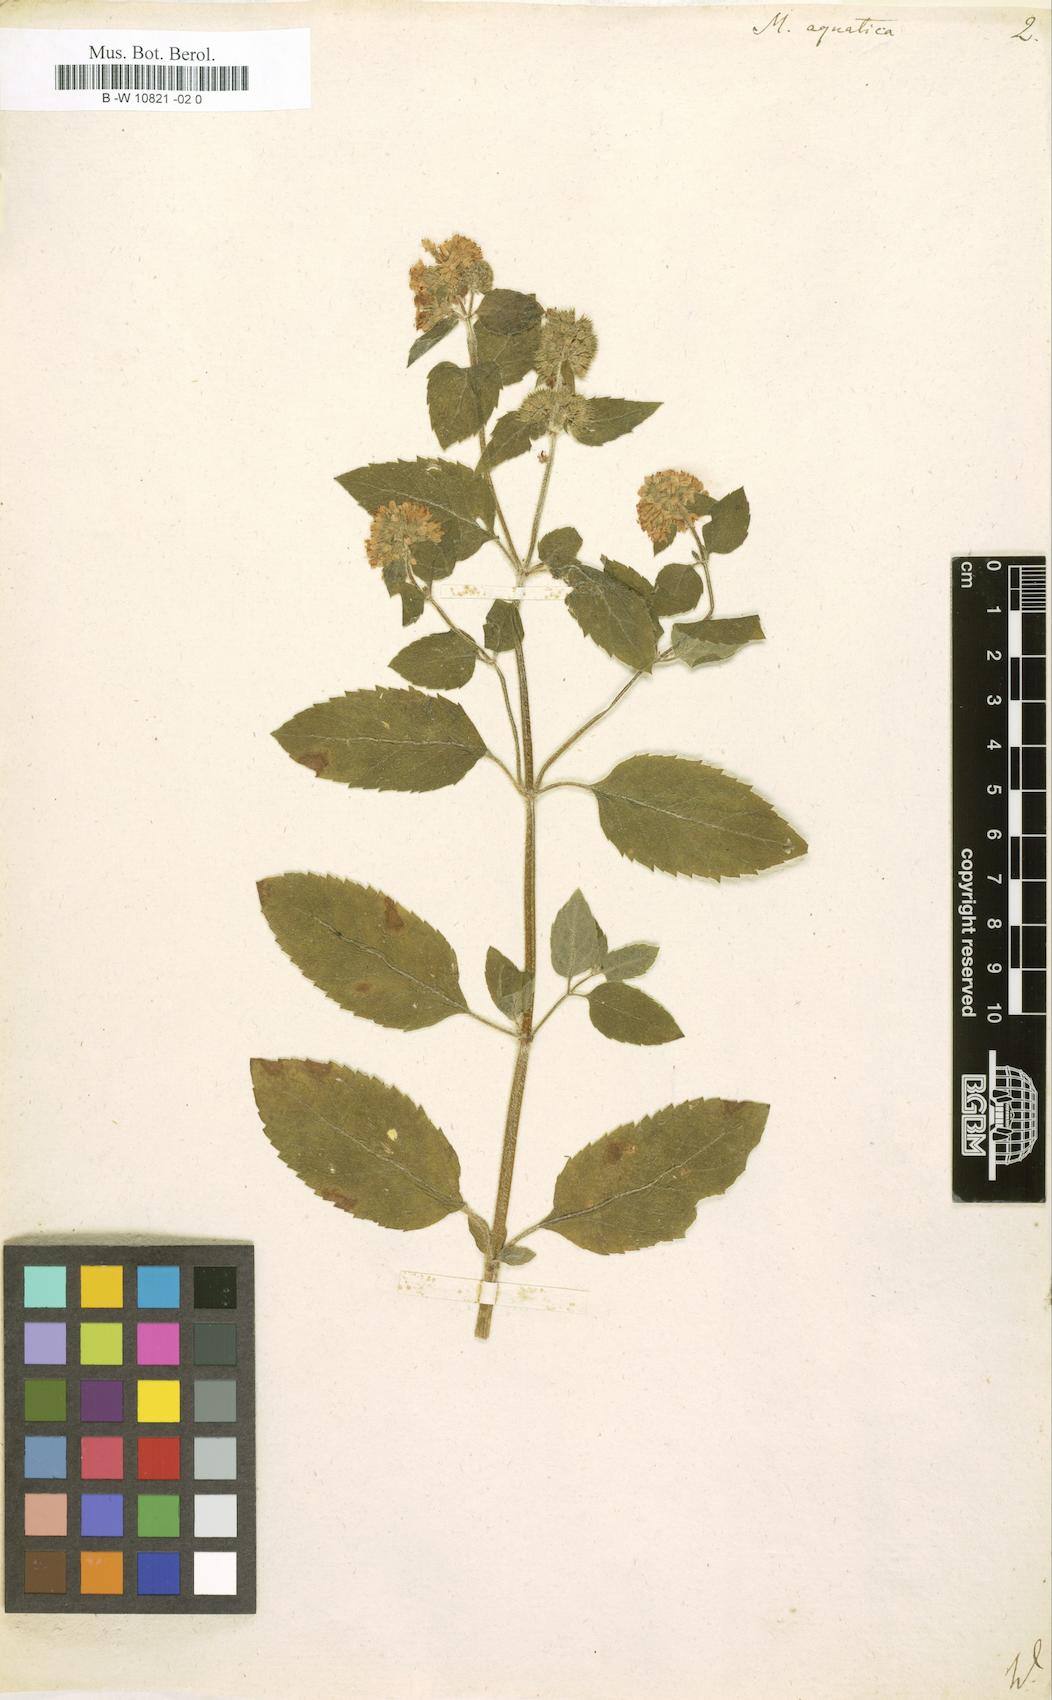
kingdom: Plantae
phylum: Tracheophyta
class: Magnoliopsida
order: Lamiales
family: Lamiaceae
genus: Mentha
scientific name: Mentha aquatica
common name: Water mint
